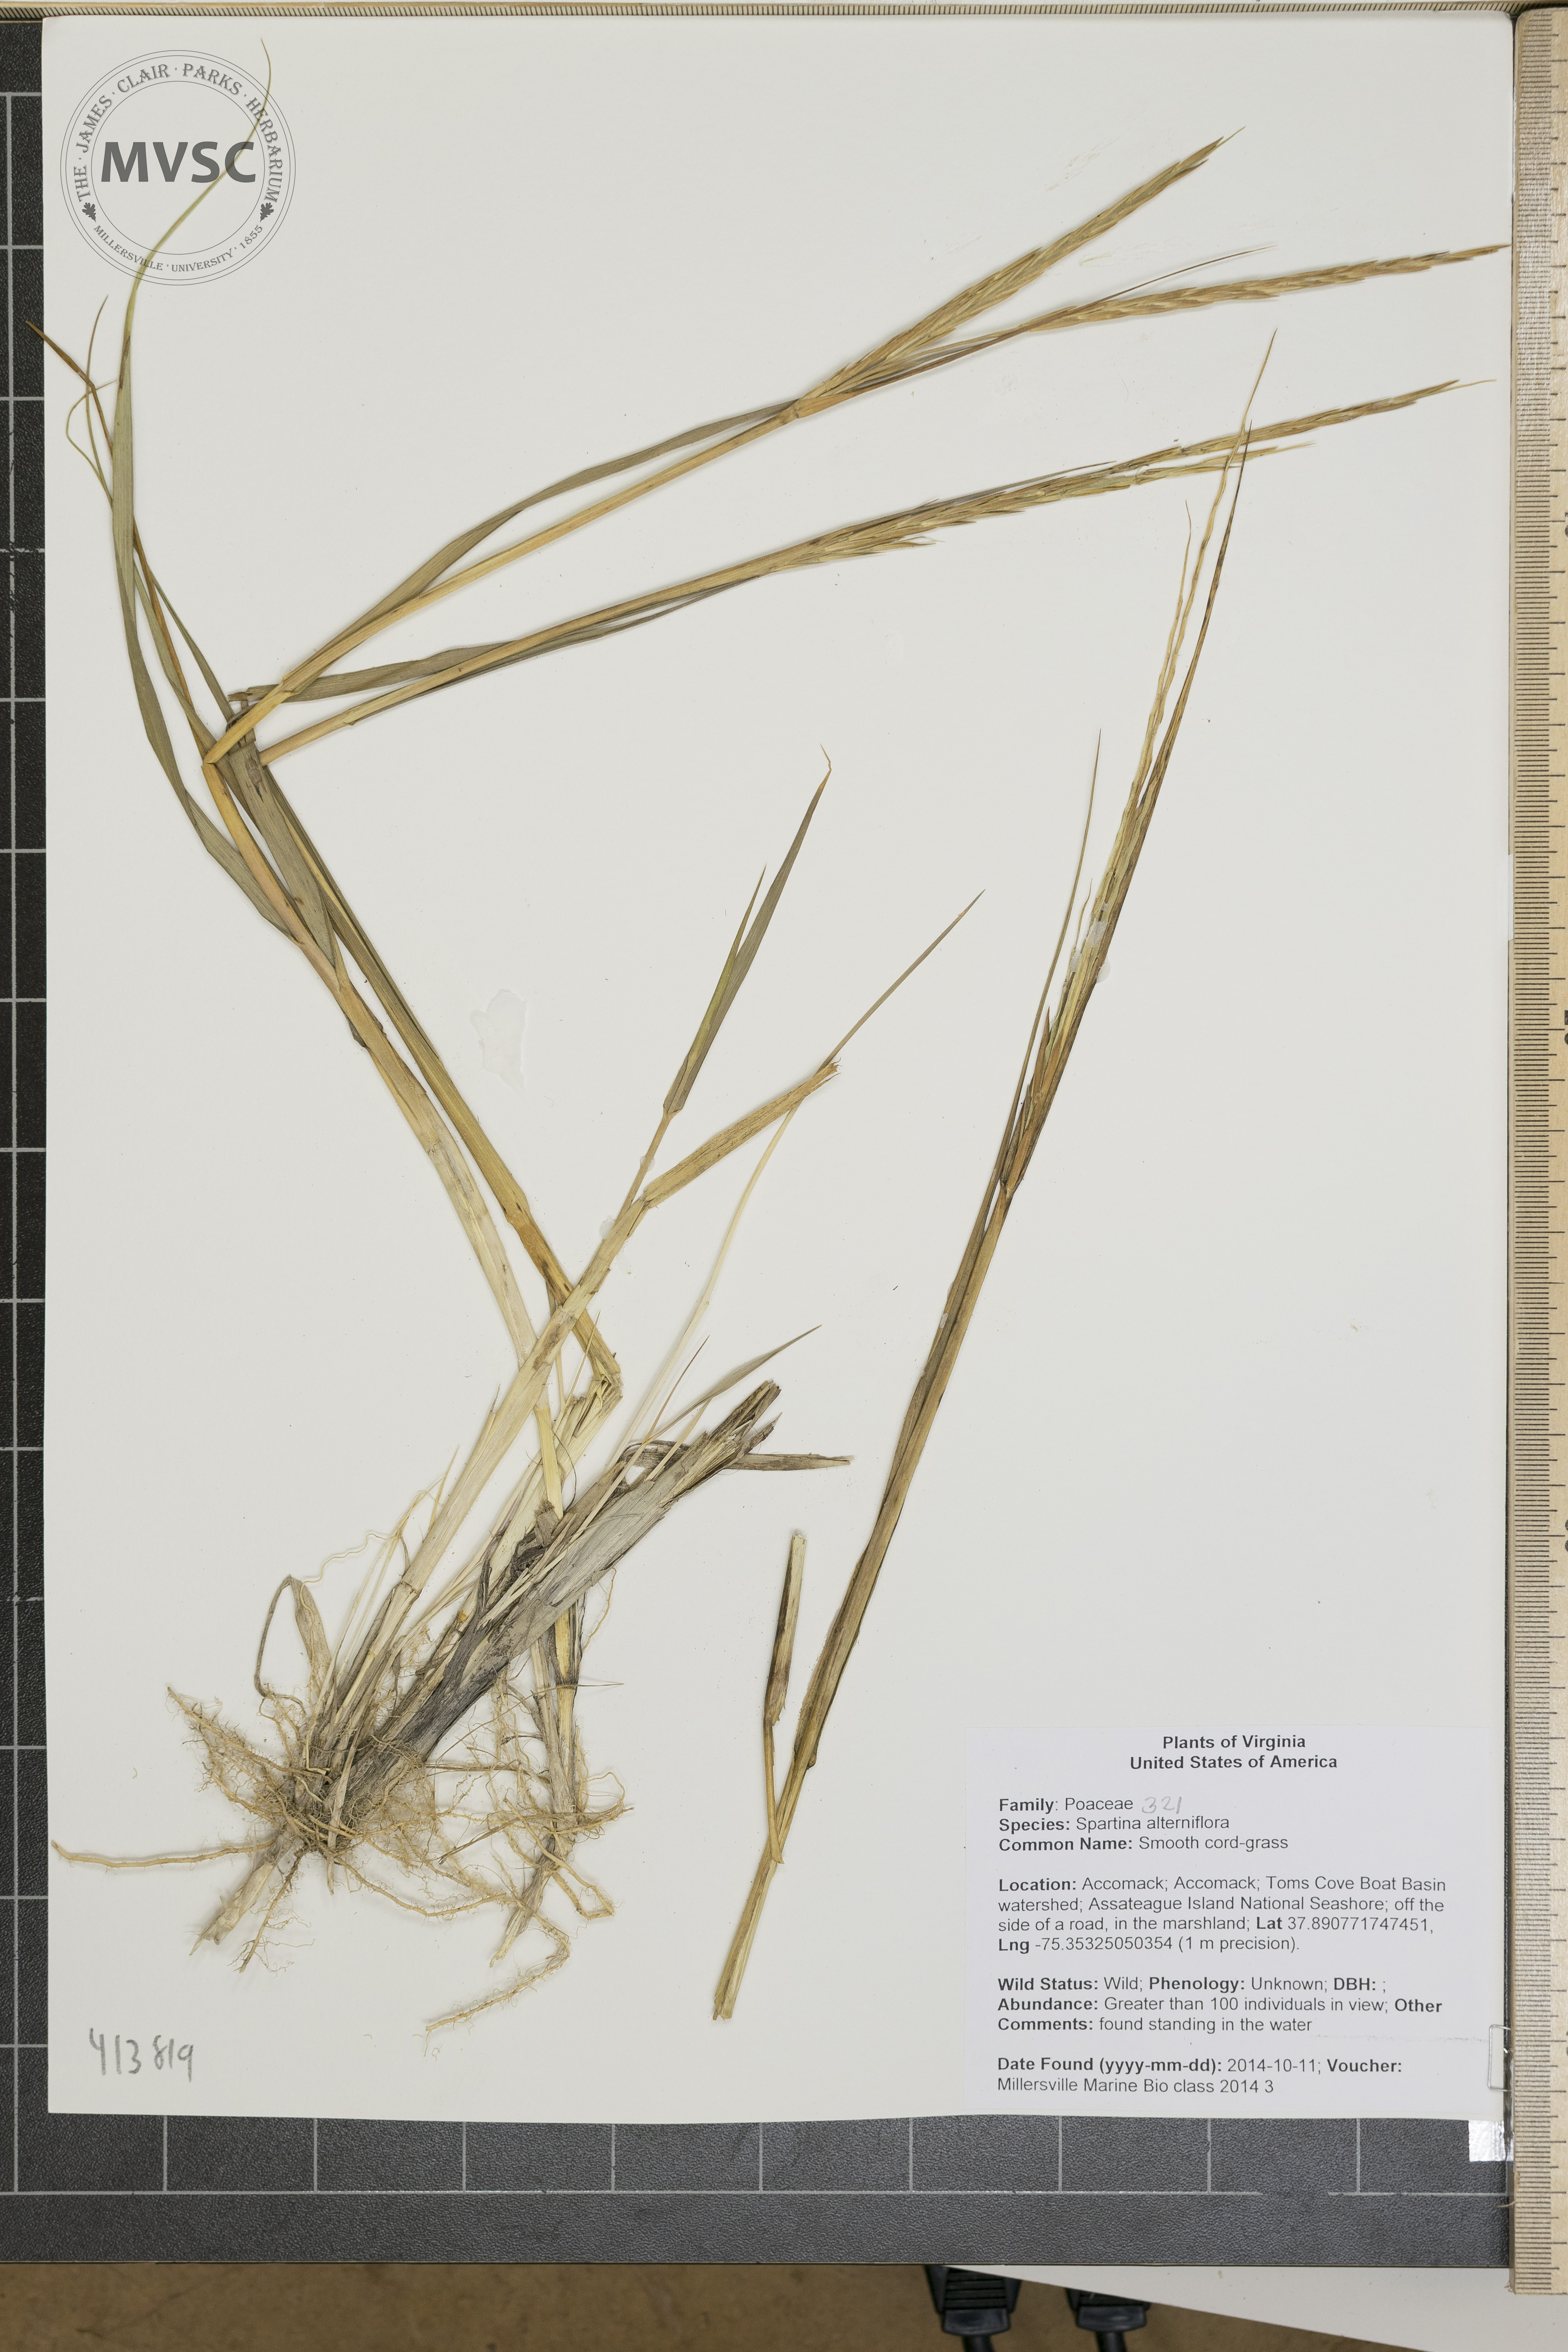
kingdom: Plantae
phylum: Tracheophyta
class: Liliopsida
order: Poales
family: Poaceae
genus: Sporobolus
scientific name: Sporobolus alterniflorus
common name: Smooth cord-grass
